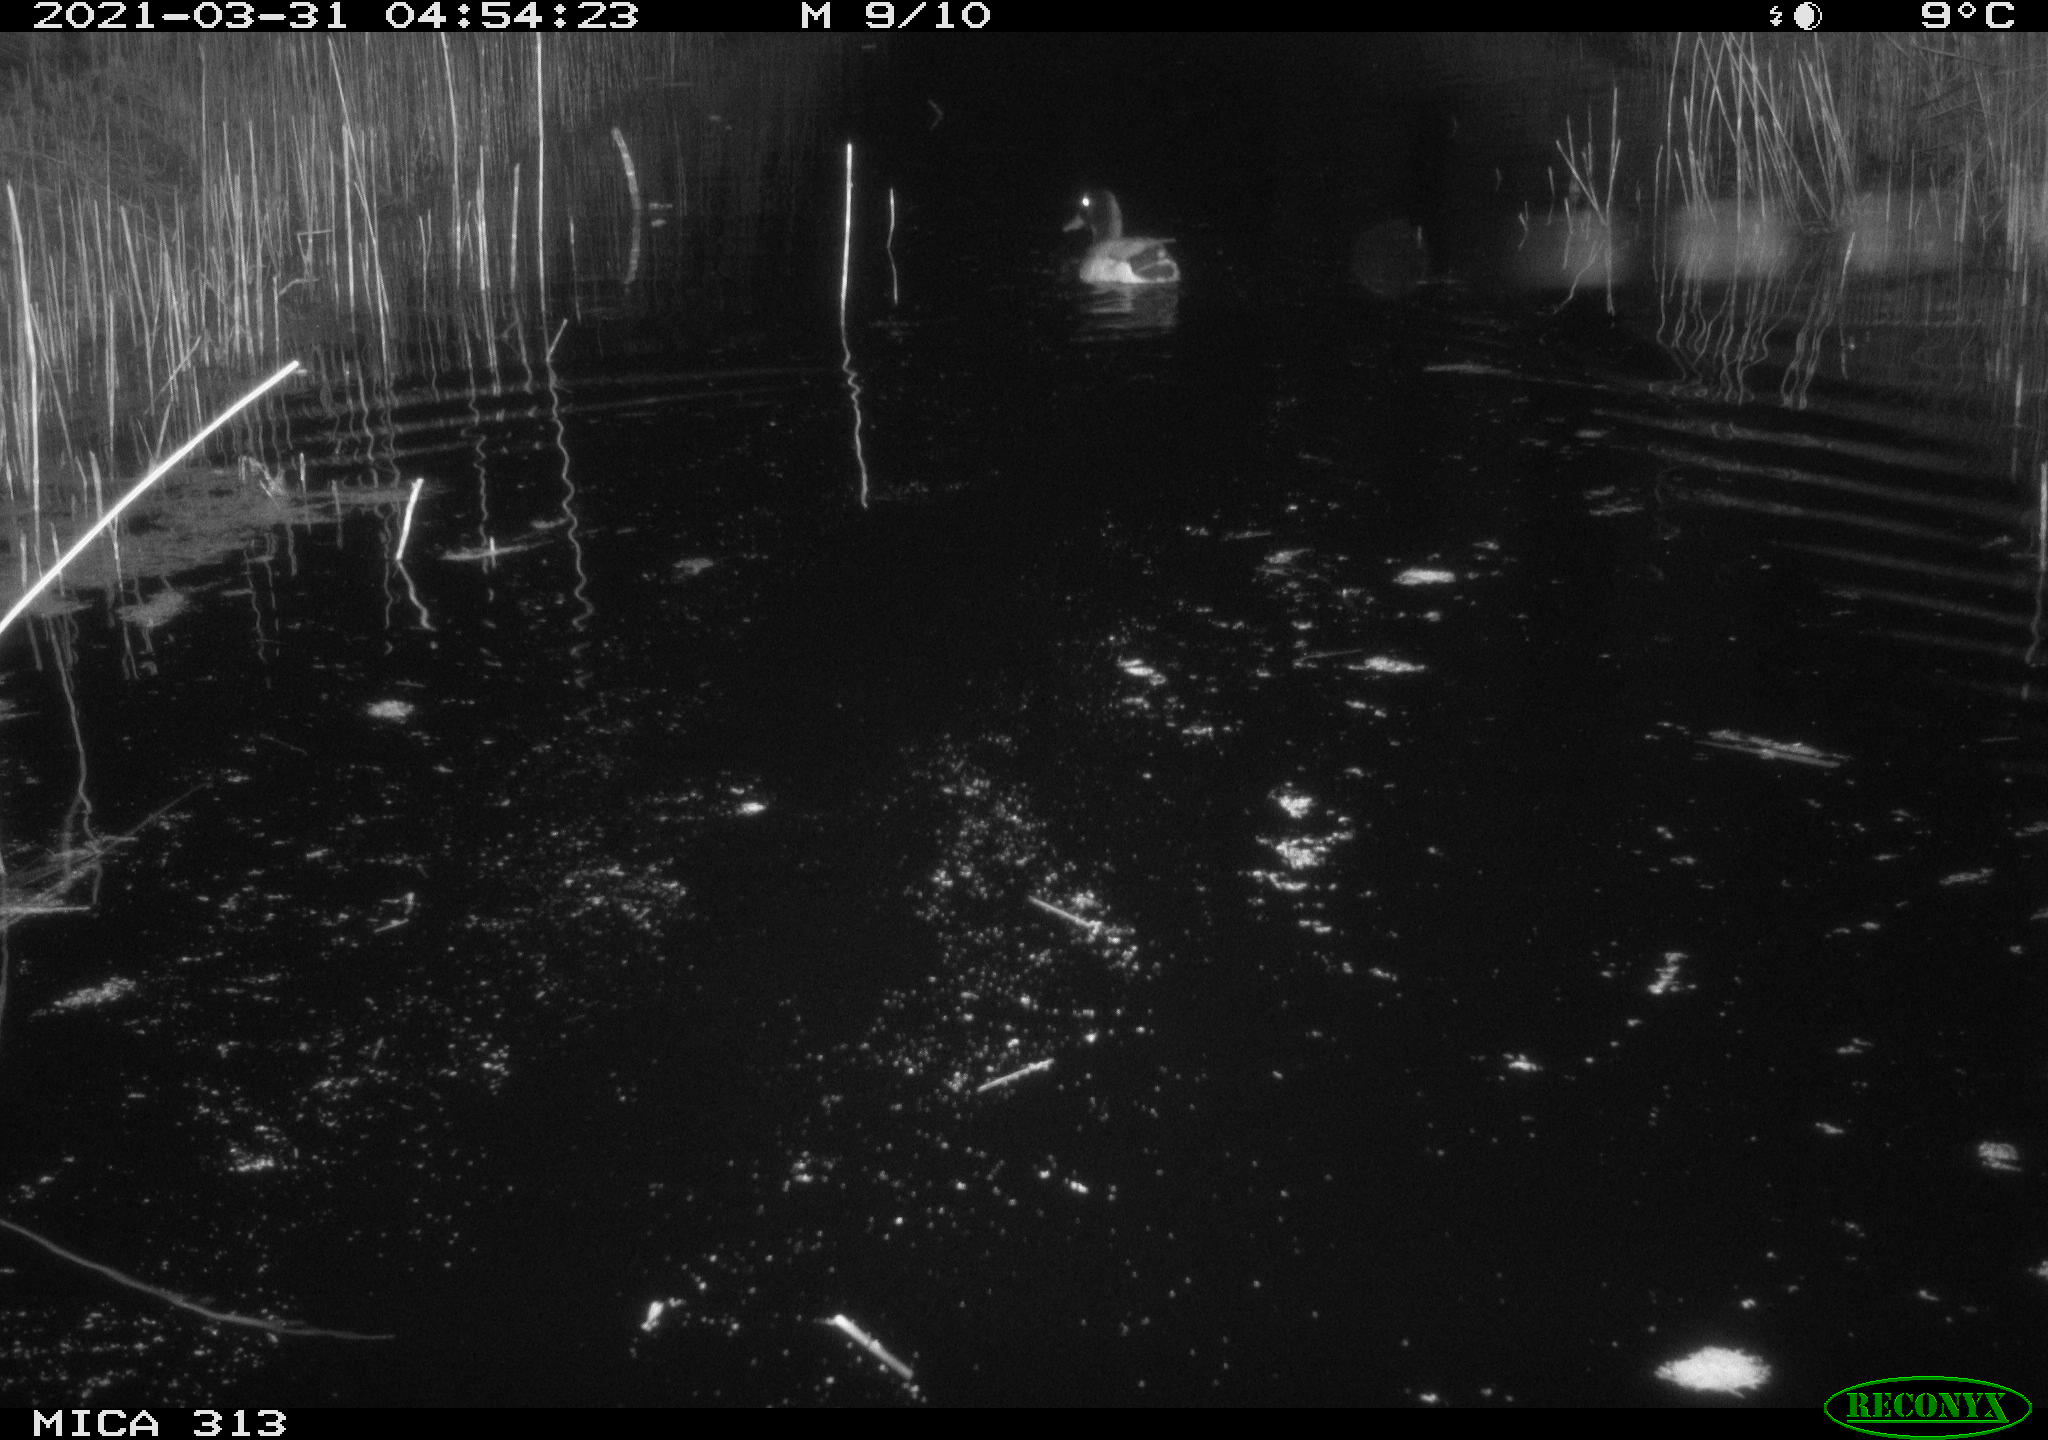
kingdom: Animalia
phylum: Chordata
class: Aves
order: Anseriformes
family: Anatidae
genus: Anas
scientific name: Anas platyrhynchos
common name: Mallard
